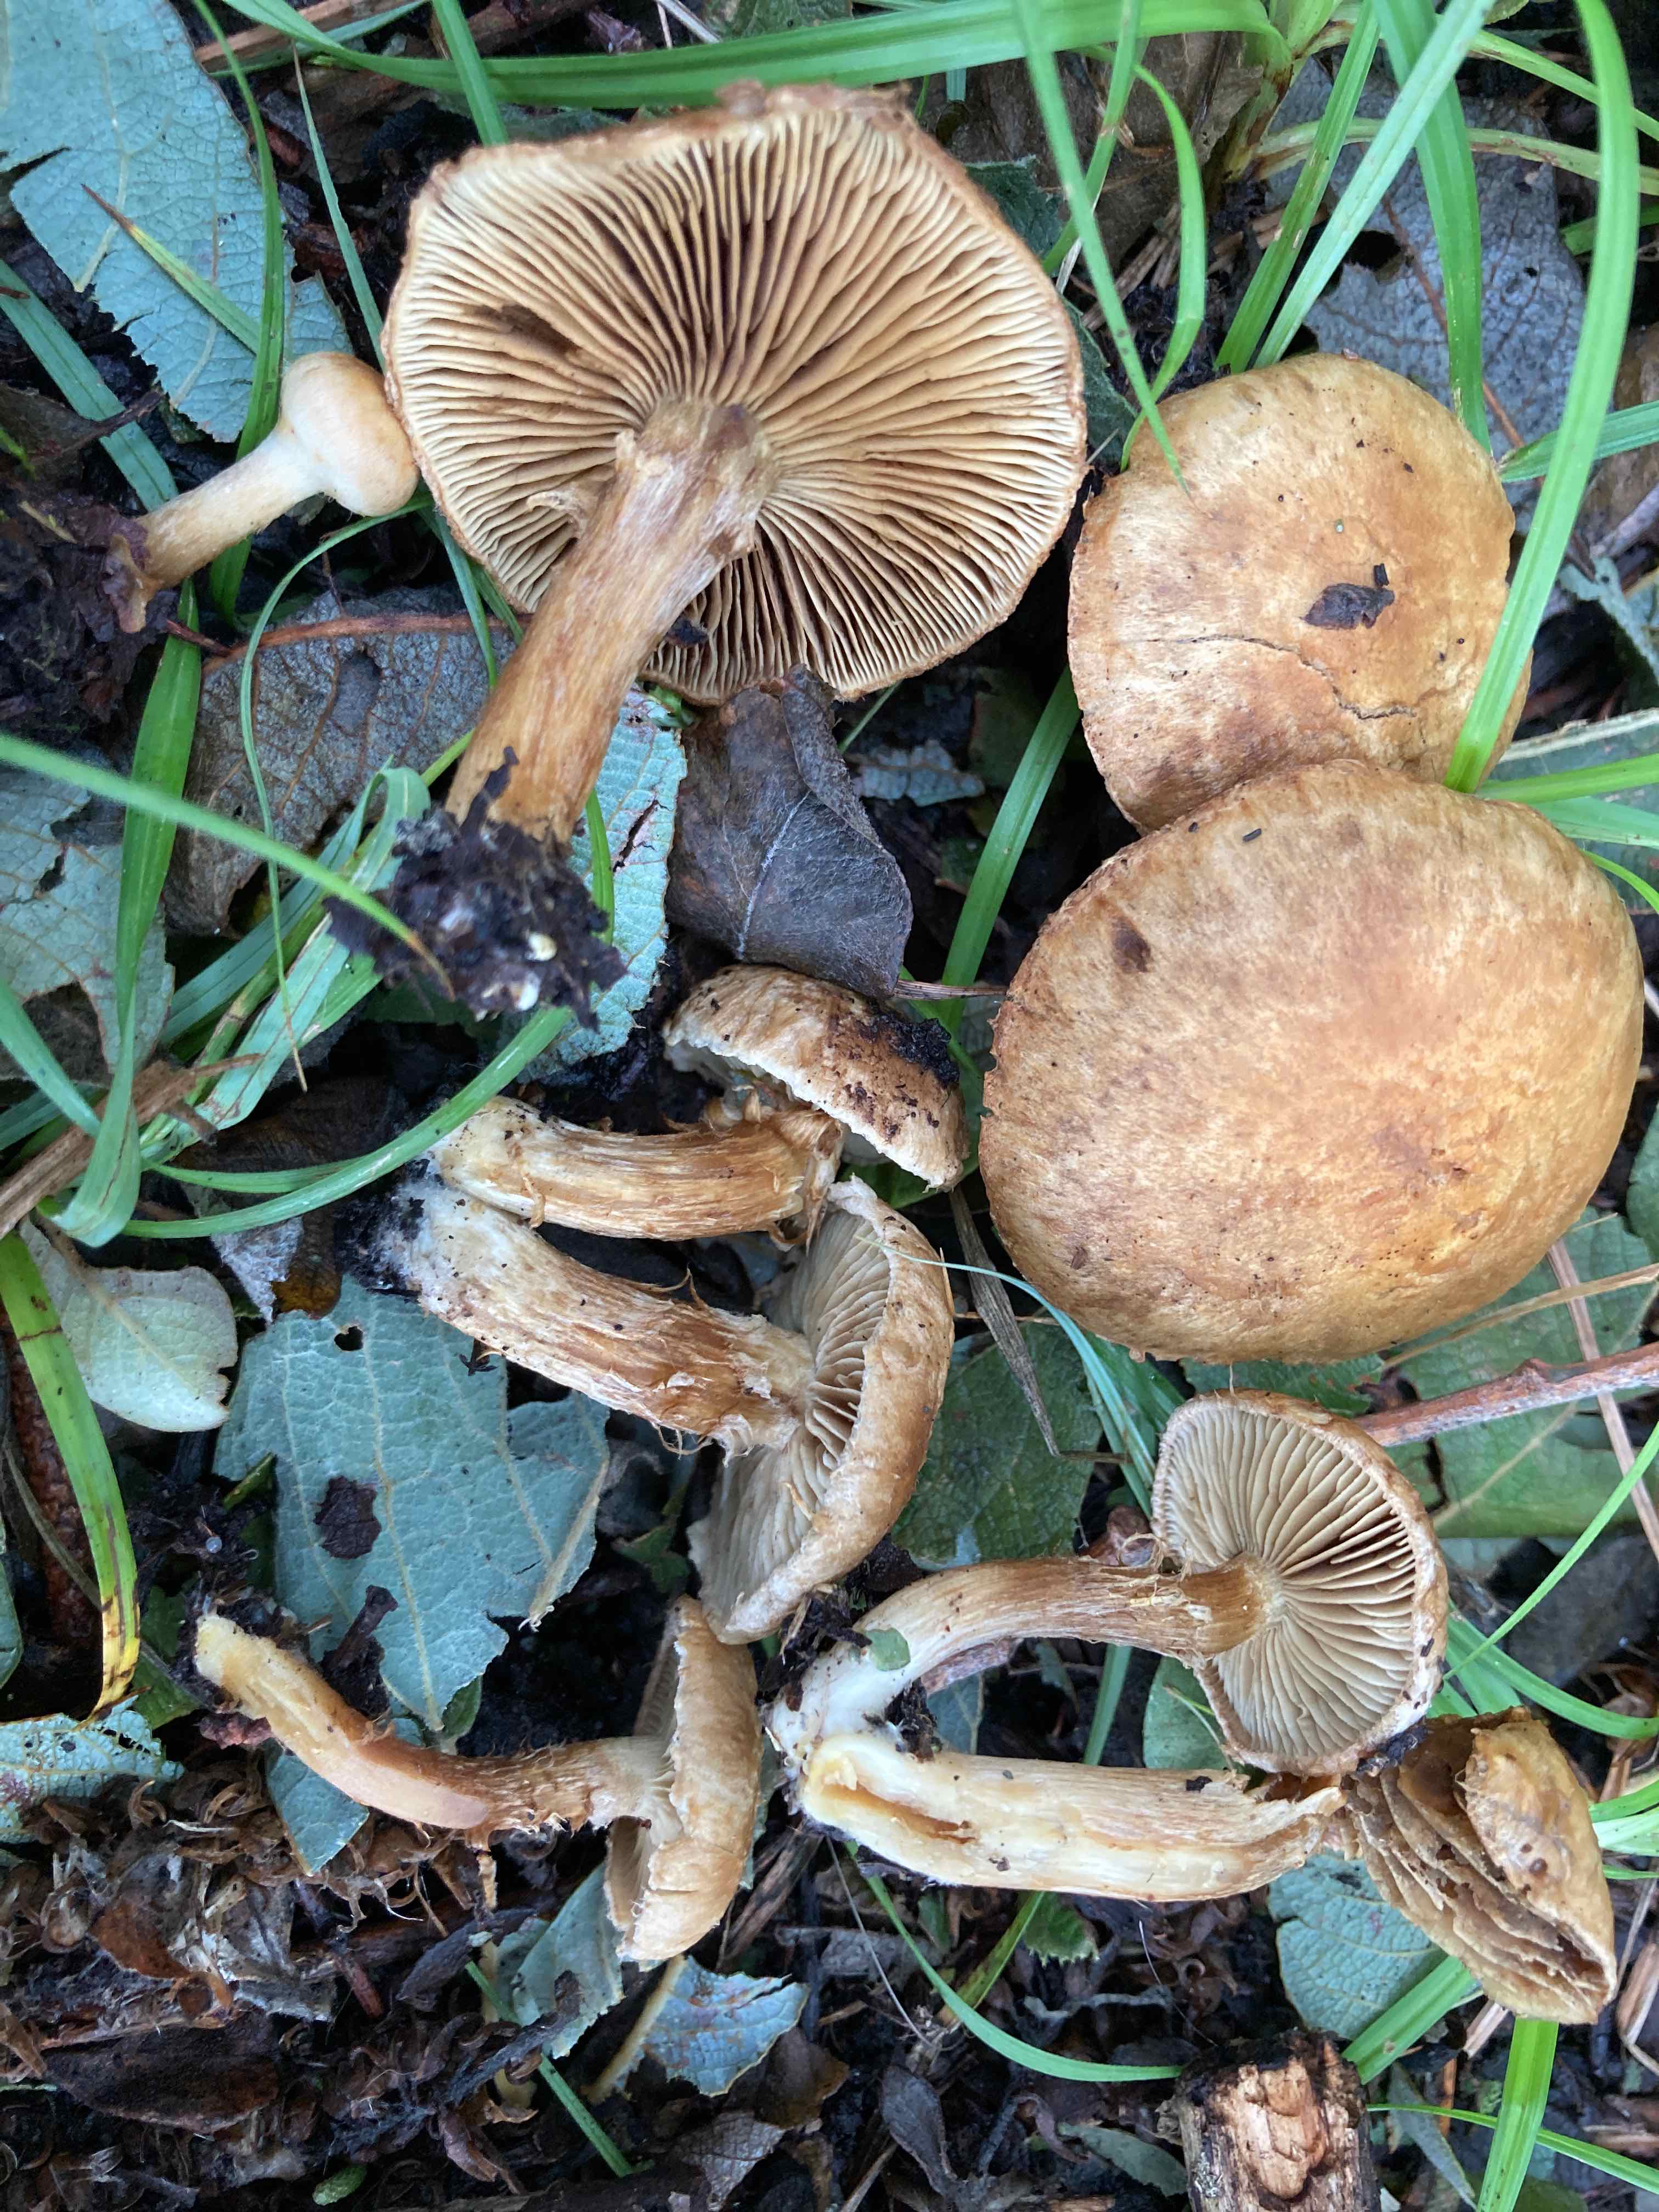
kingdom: Fungi
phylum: Basidiomycota
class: Agaricomycetes
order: Agaricales
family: Inocybaceae
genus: Mallocybe
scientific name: Mallocybe agardhii
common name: Agardhs trævlhat
